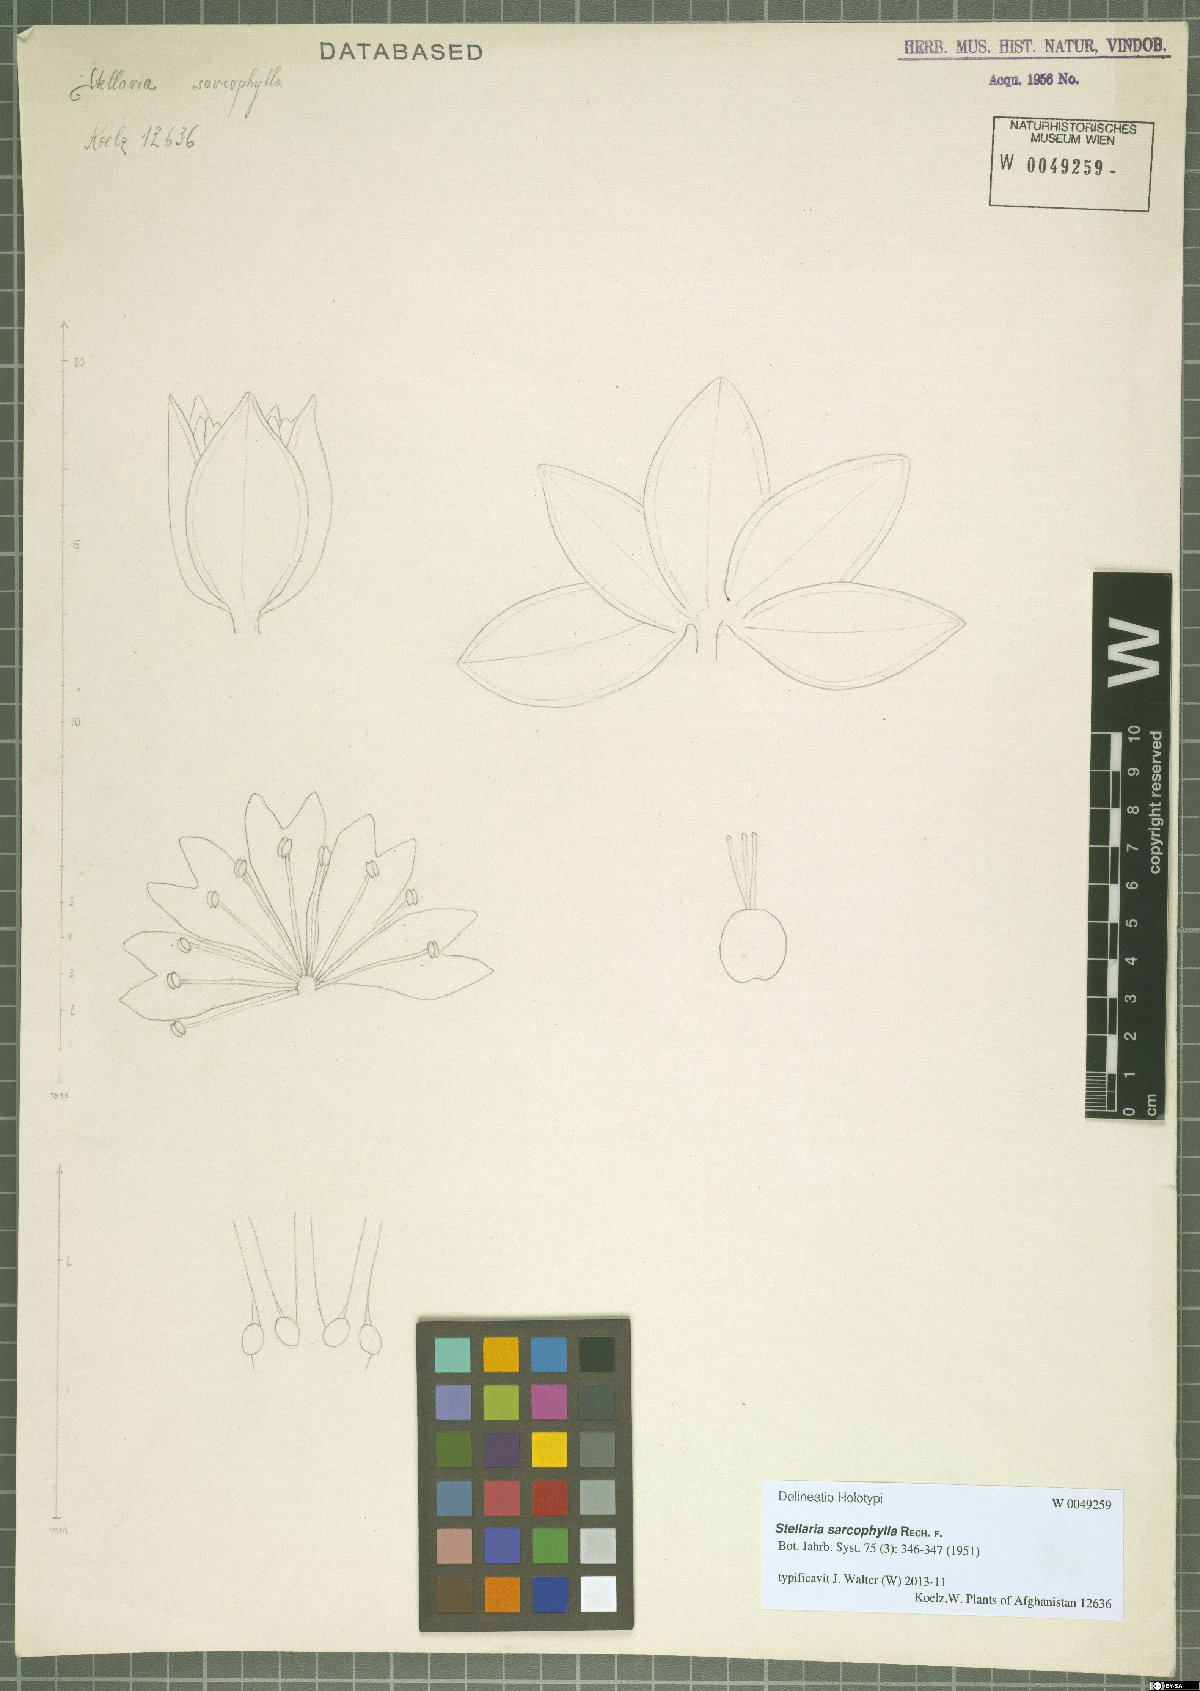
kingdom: Plantae
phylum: Tracheophyta
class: Magnoliopsida
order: Caryophyllales
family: Caryophyllaceae
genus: Stellaria
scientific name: Stellaria sarcophylla
